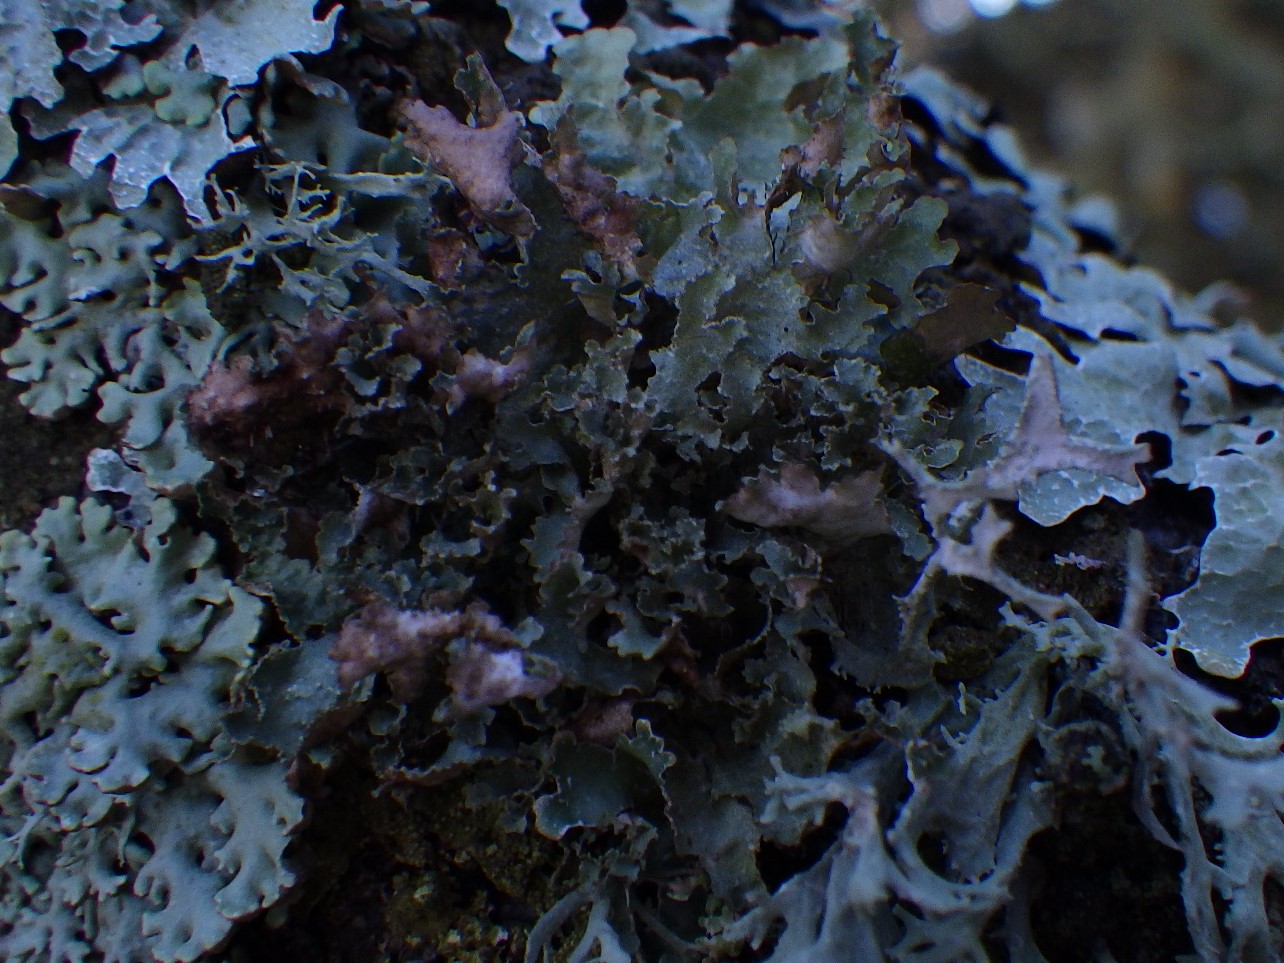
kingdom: Fungi
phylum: Ascomycota
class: Lecanoromycetes
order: Lecanorales
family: Parmeliaceae
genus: Platismatia
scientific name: Platismatia glauca
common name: blågrå papirlav
